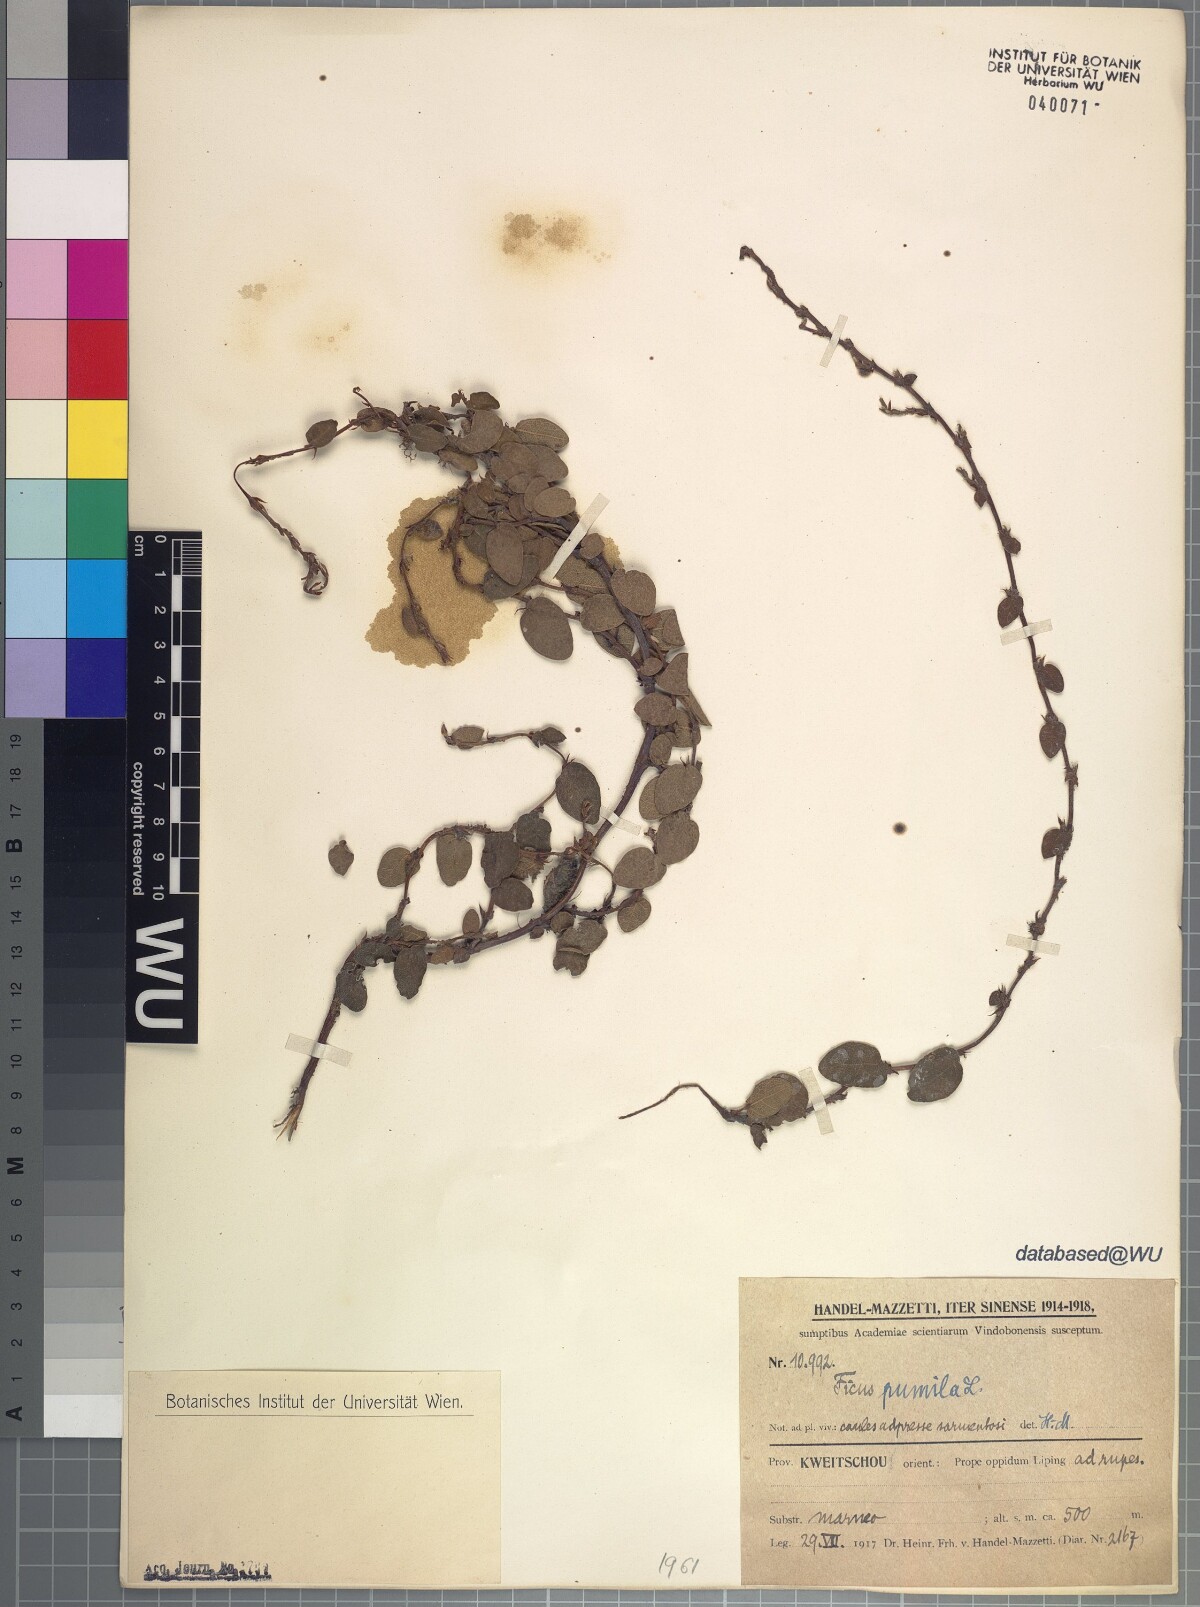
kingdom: Plantae
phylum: Tracheophyta
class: Magnoliopsida
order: Rosales
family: Moraceae
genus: Ficus
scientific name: Ficus pumila
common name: Climbingfig
